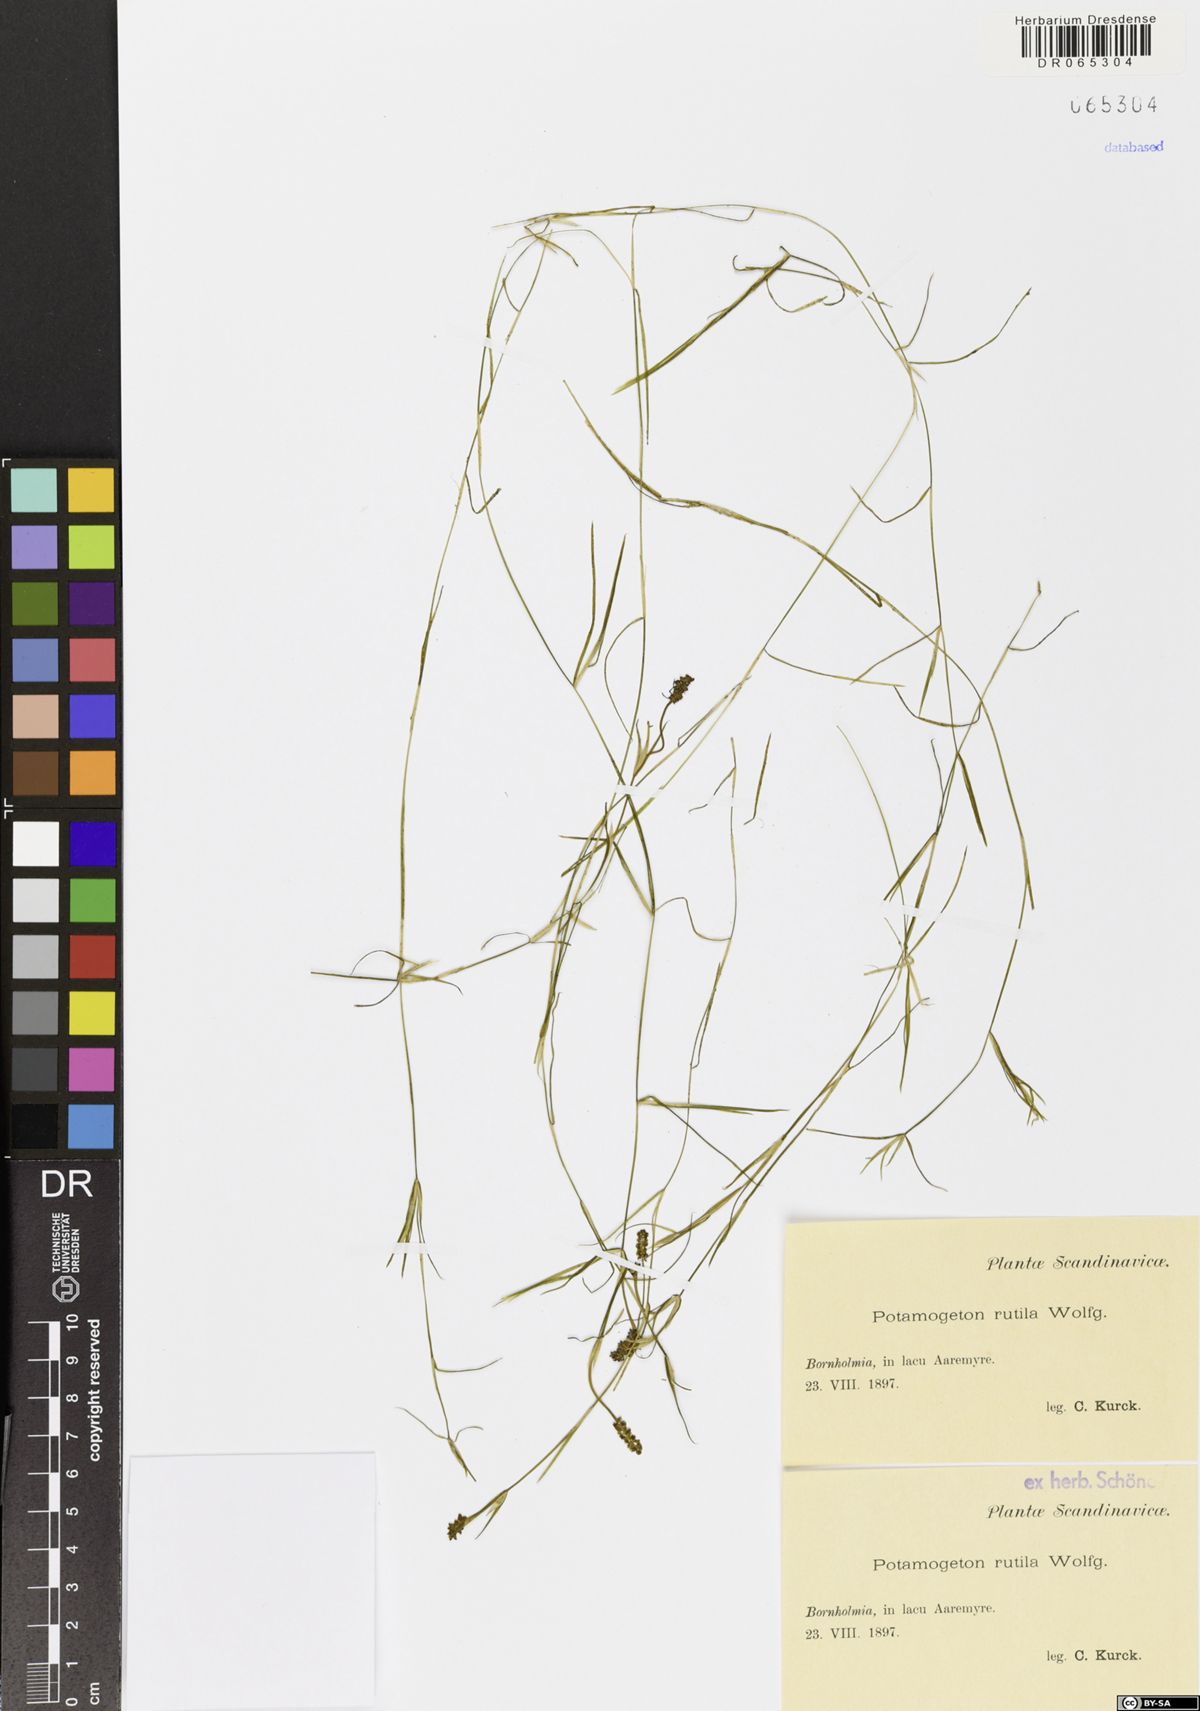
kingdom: Plantae
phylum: Tracheophyta
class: Liliopsida
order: Alismatales
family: Potamogetonaceae
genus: Potamogeton
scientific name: Potamogeton rutilus
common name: Shetland pondweed
